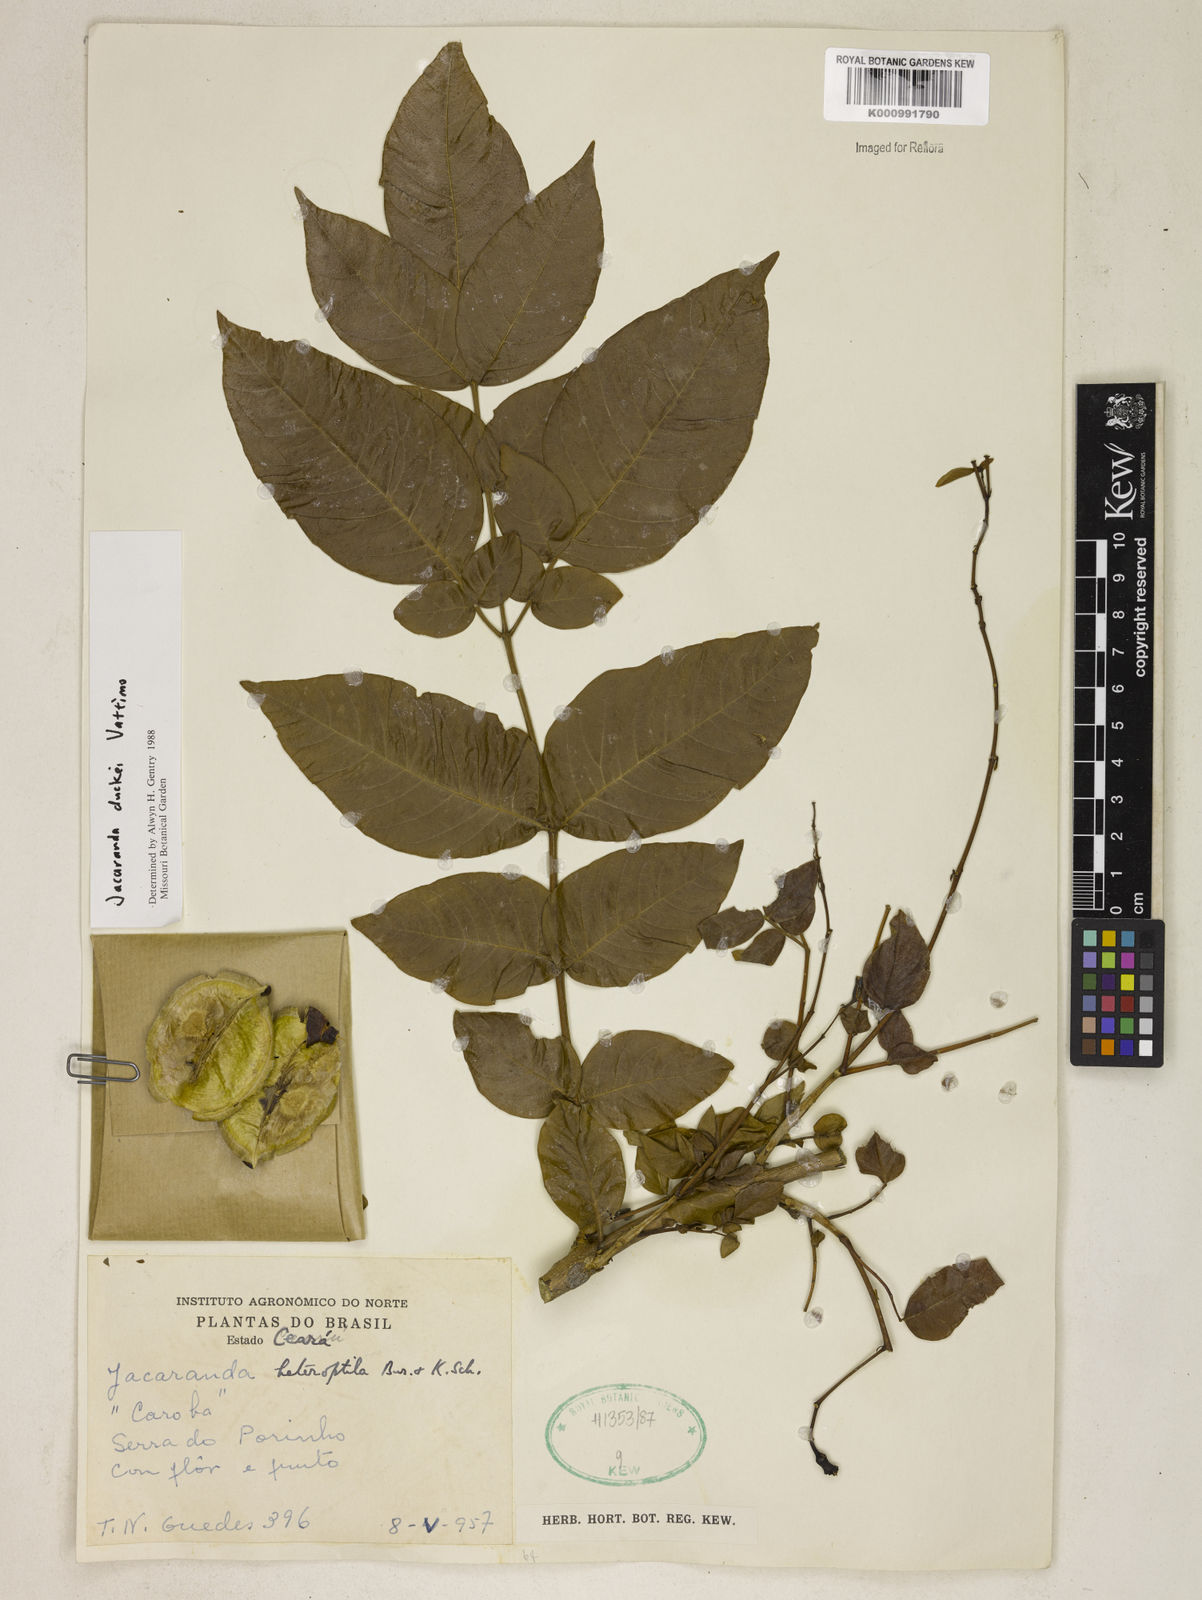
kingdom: Plantae
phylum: Tracheophyta
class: Magnoliopsida
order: Lamiales
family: Bignoniaceae
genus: Jacaranda
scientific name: Jacaranda duckei
